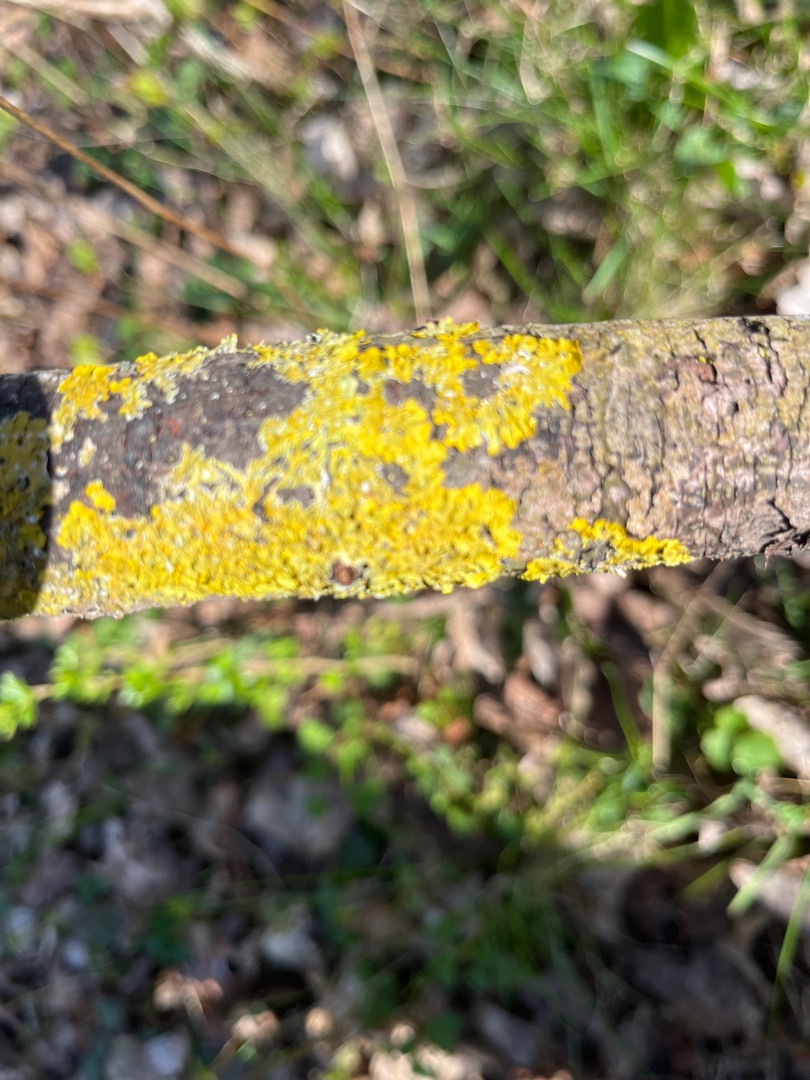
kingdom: Fungi
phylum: Ascomycota
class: Lecanoromycetes
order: Teloschistales
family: Teloschistaceae
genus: Xanthoria
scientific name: Xanthoria parietina
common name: Almindelig væggelav
